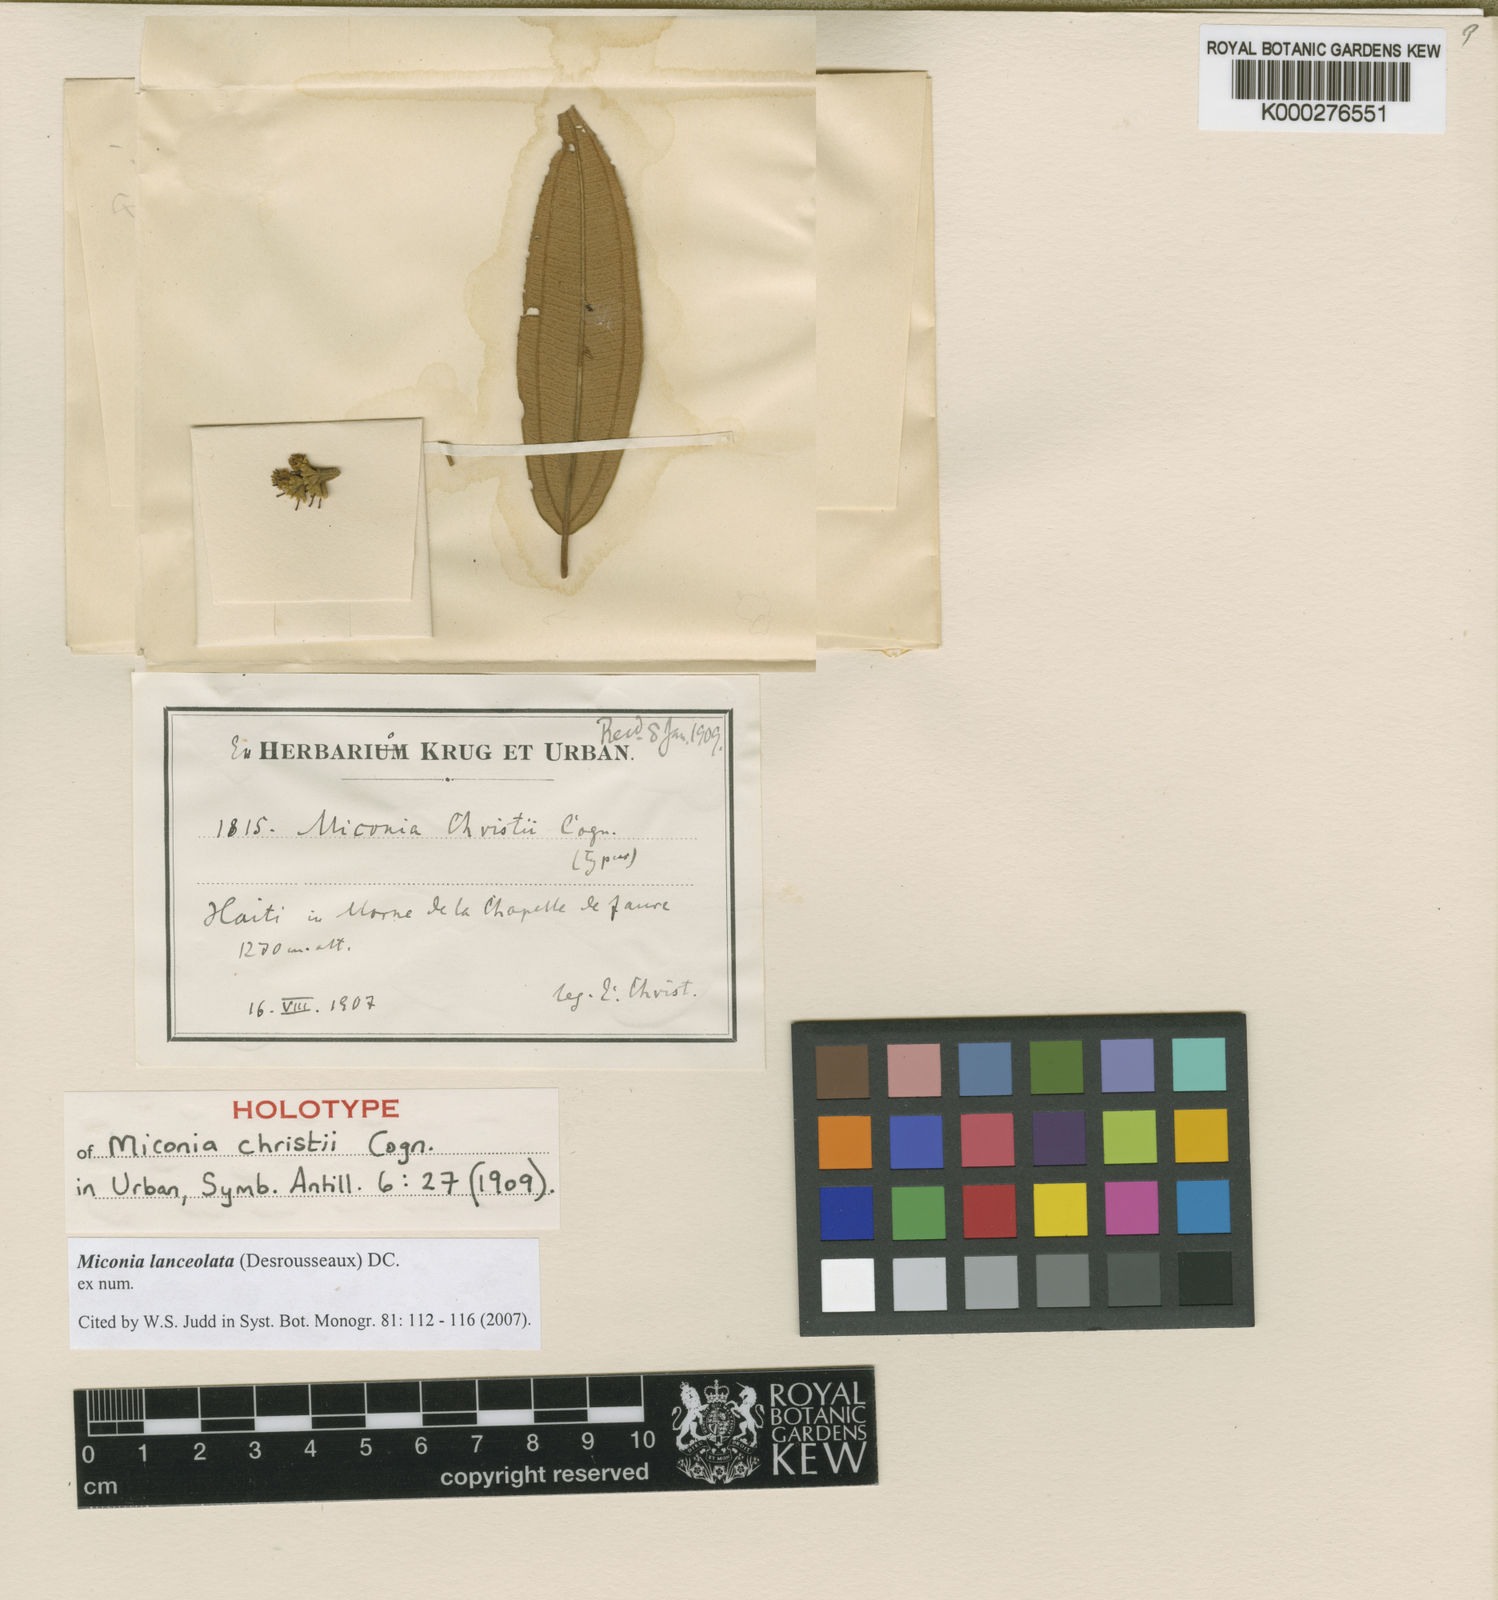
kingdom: Plantae
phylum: Tracheophyta
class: Magnoliopsida
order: Myrtales
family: Melastomataceae
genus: Miconia
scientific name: Miconia lanceolata
